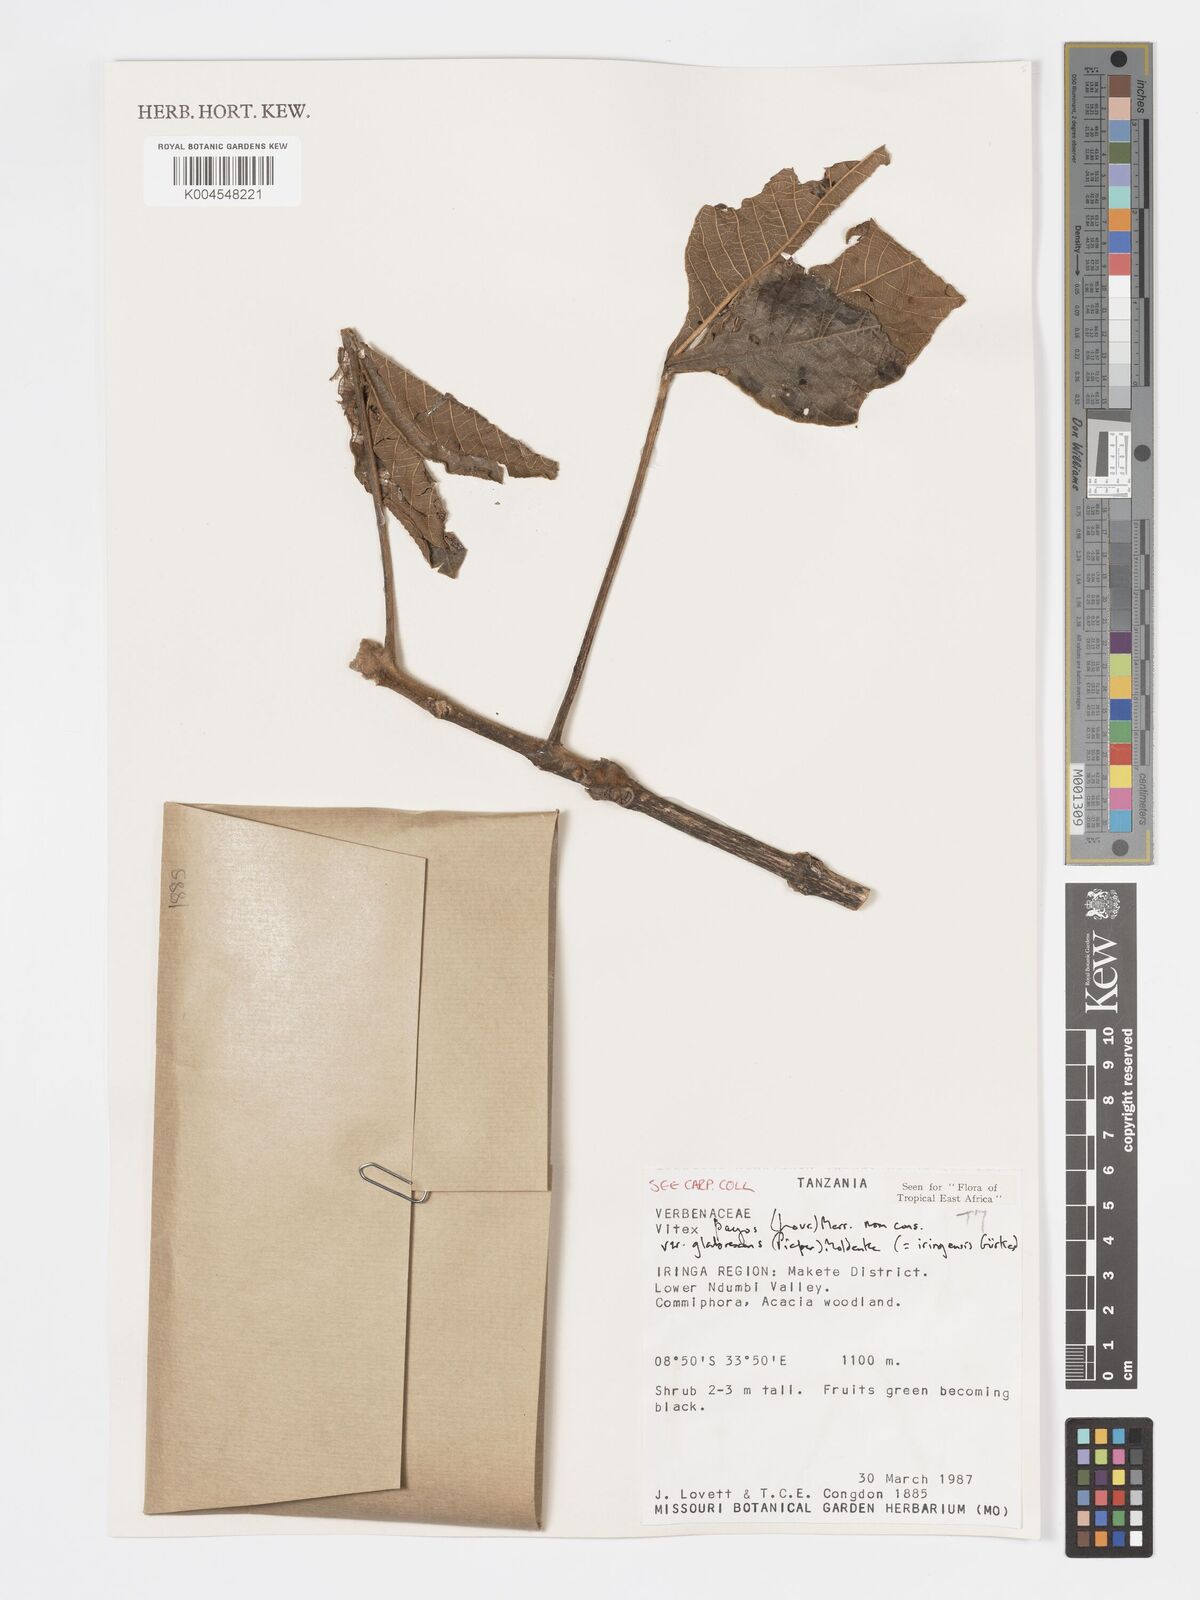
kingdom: Plantae
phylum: Tracheophyta
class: Magnoliopsida
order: Lamiales
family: Lamiaceae
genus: Vitex
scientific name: Vitex payos
